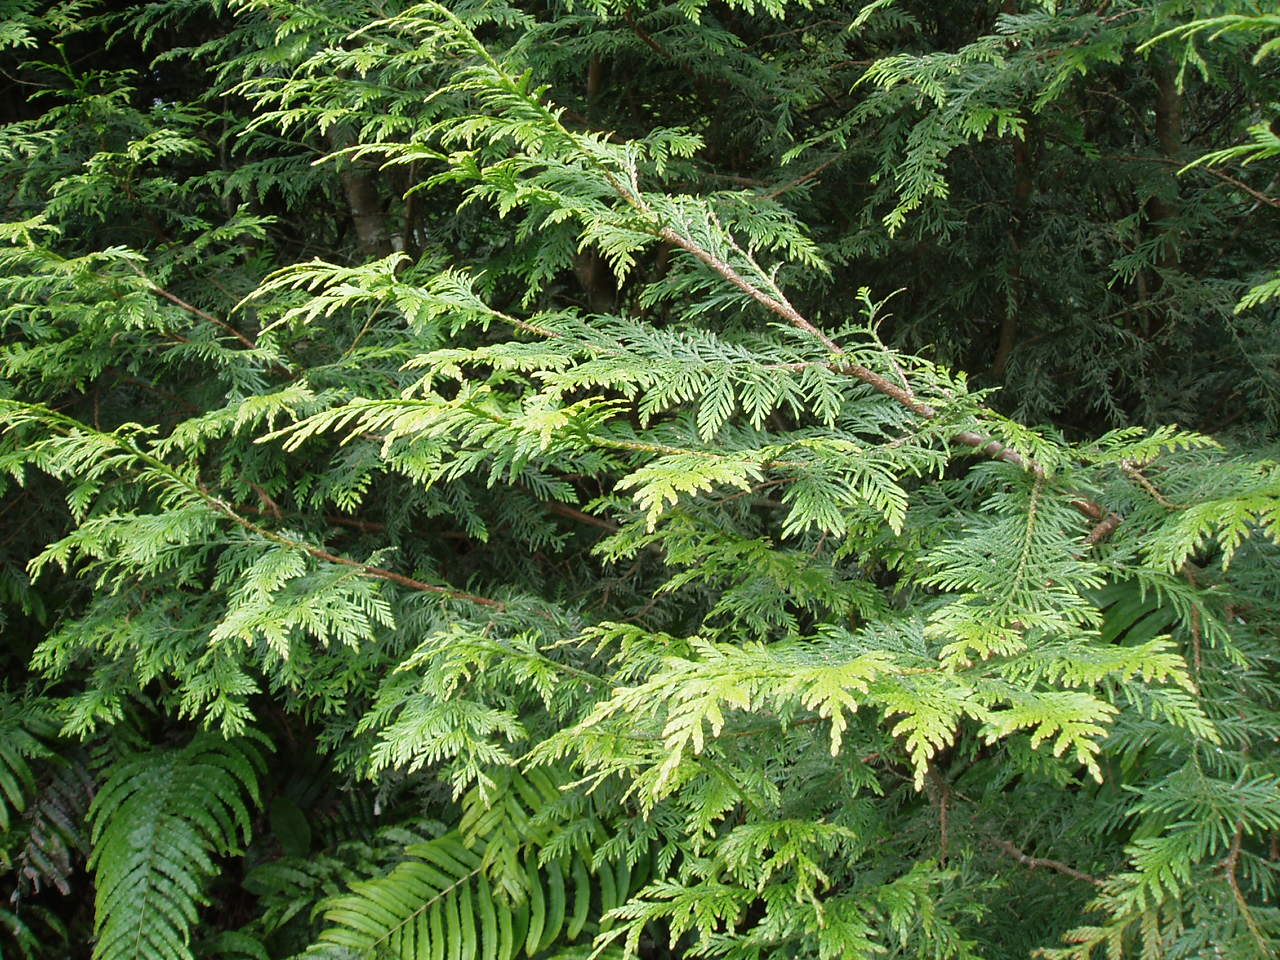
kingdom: Plantae
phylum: Tracheophyta
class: Pinopsida
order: Pinales
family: Cupressaceae
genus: Thuja
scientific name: Thuja plicata
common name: Western red-cedar
